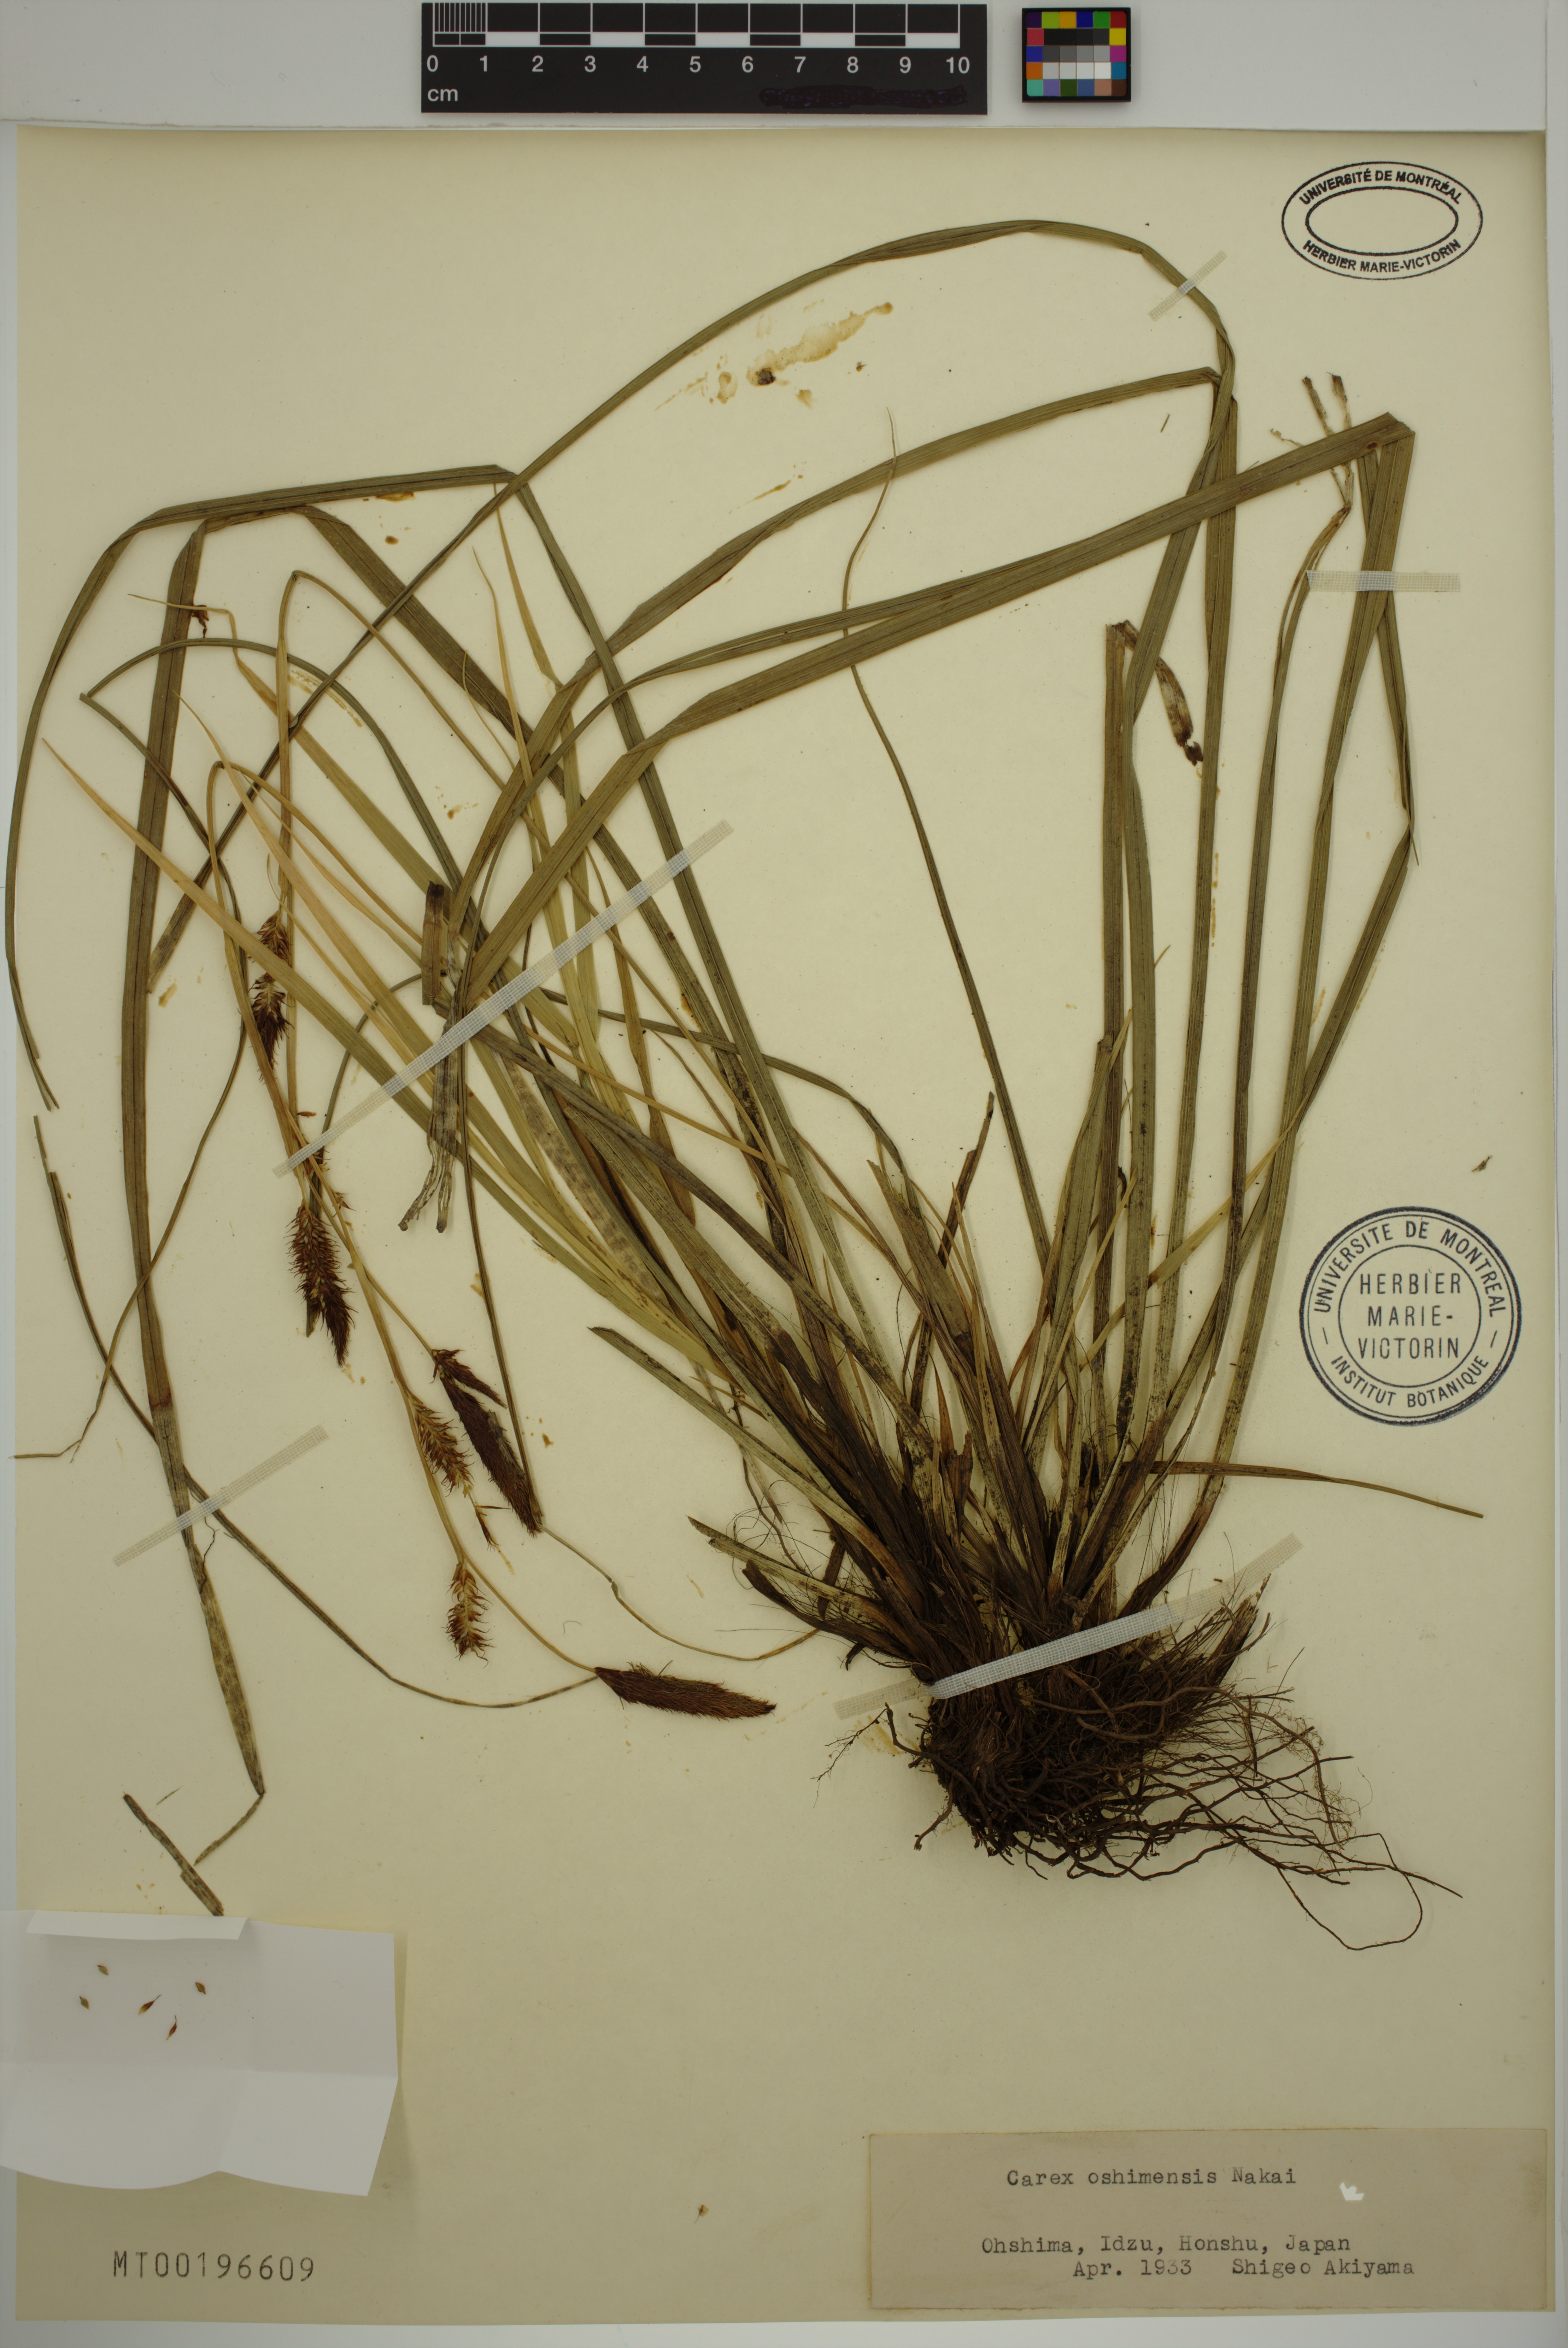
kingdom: Plantae
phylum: Tracheophyta
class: Liliopsida
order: Poales
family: Cyperaceae
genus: Carex
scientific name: Carex oshimensis
